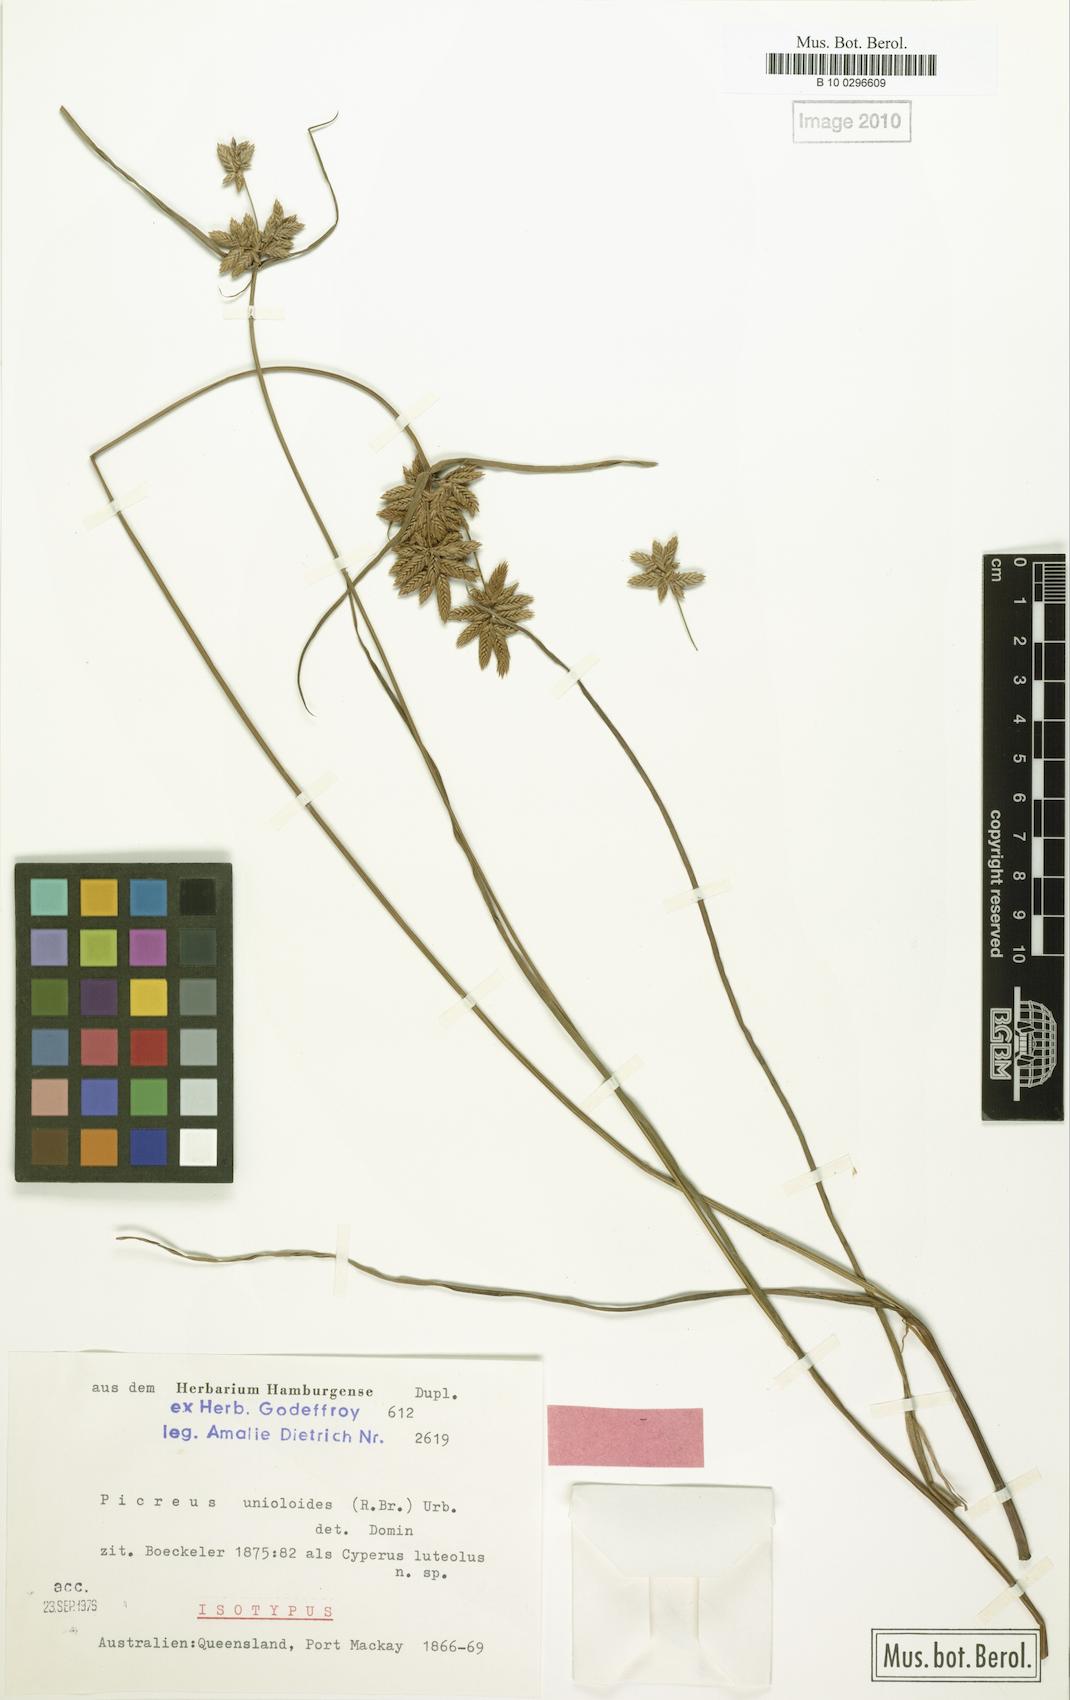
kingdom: Plantae
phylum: Tracheophyta
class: Liliopsida
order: Poales
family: Cyperaceae
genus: Cyperus
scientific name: Cyperus unioloides
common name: Uniola flatsedge
